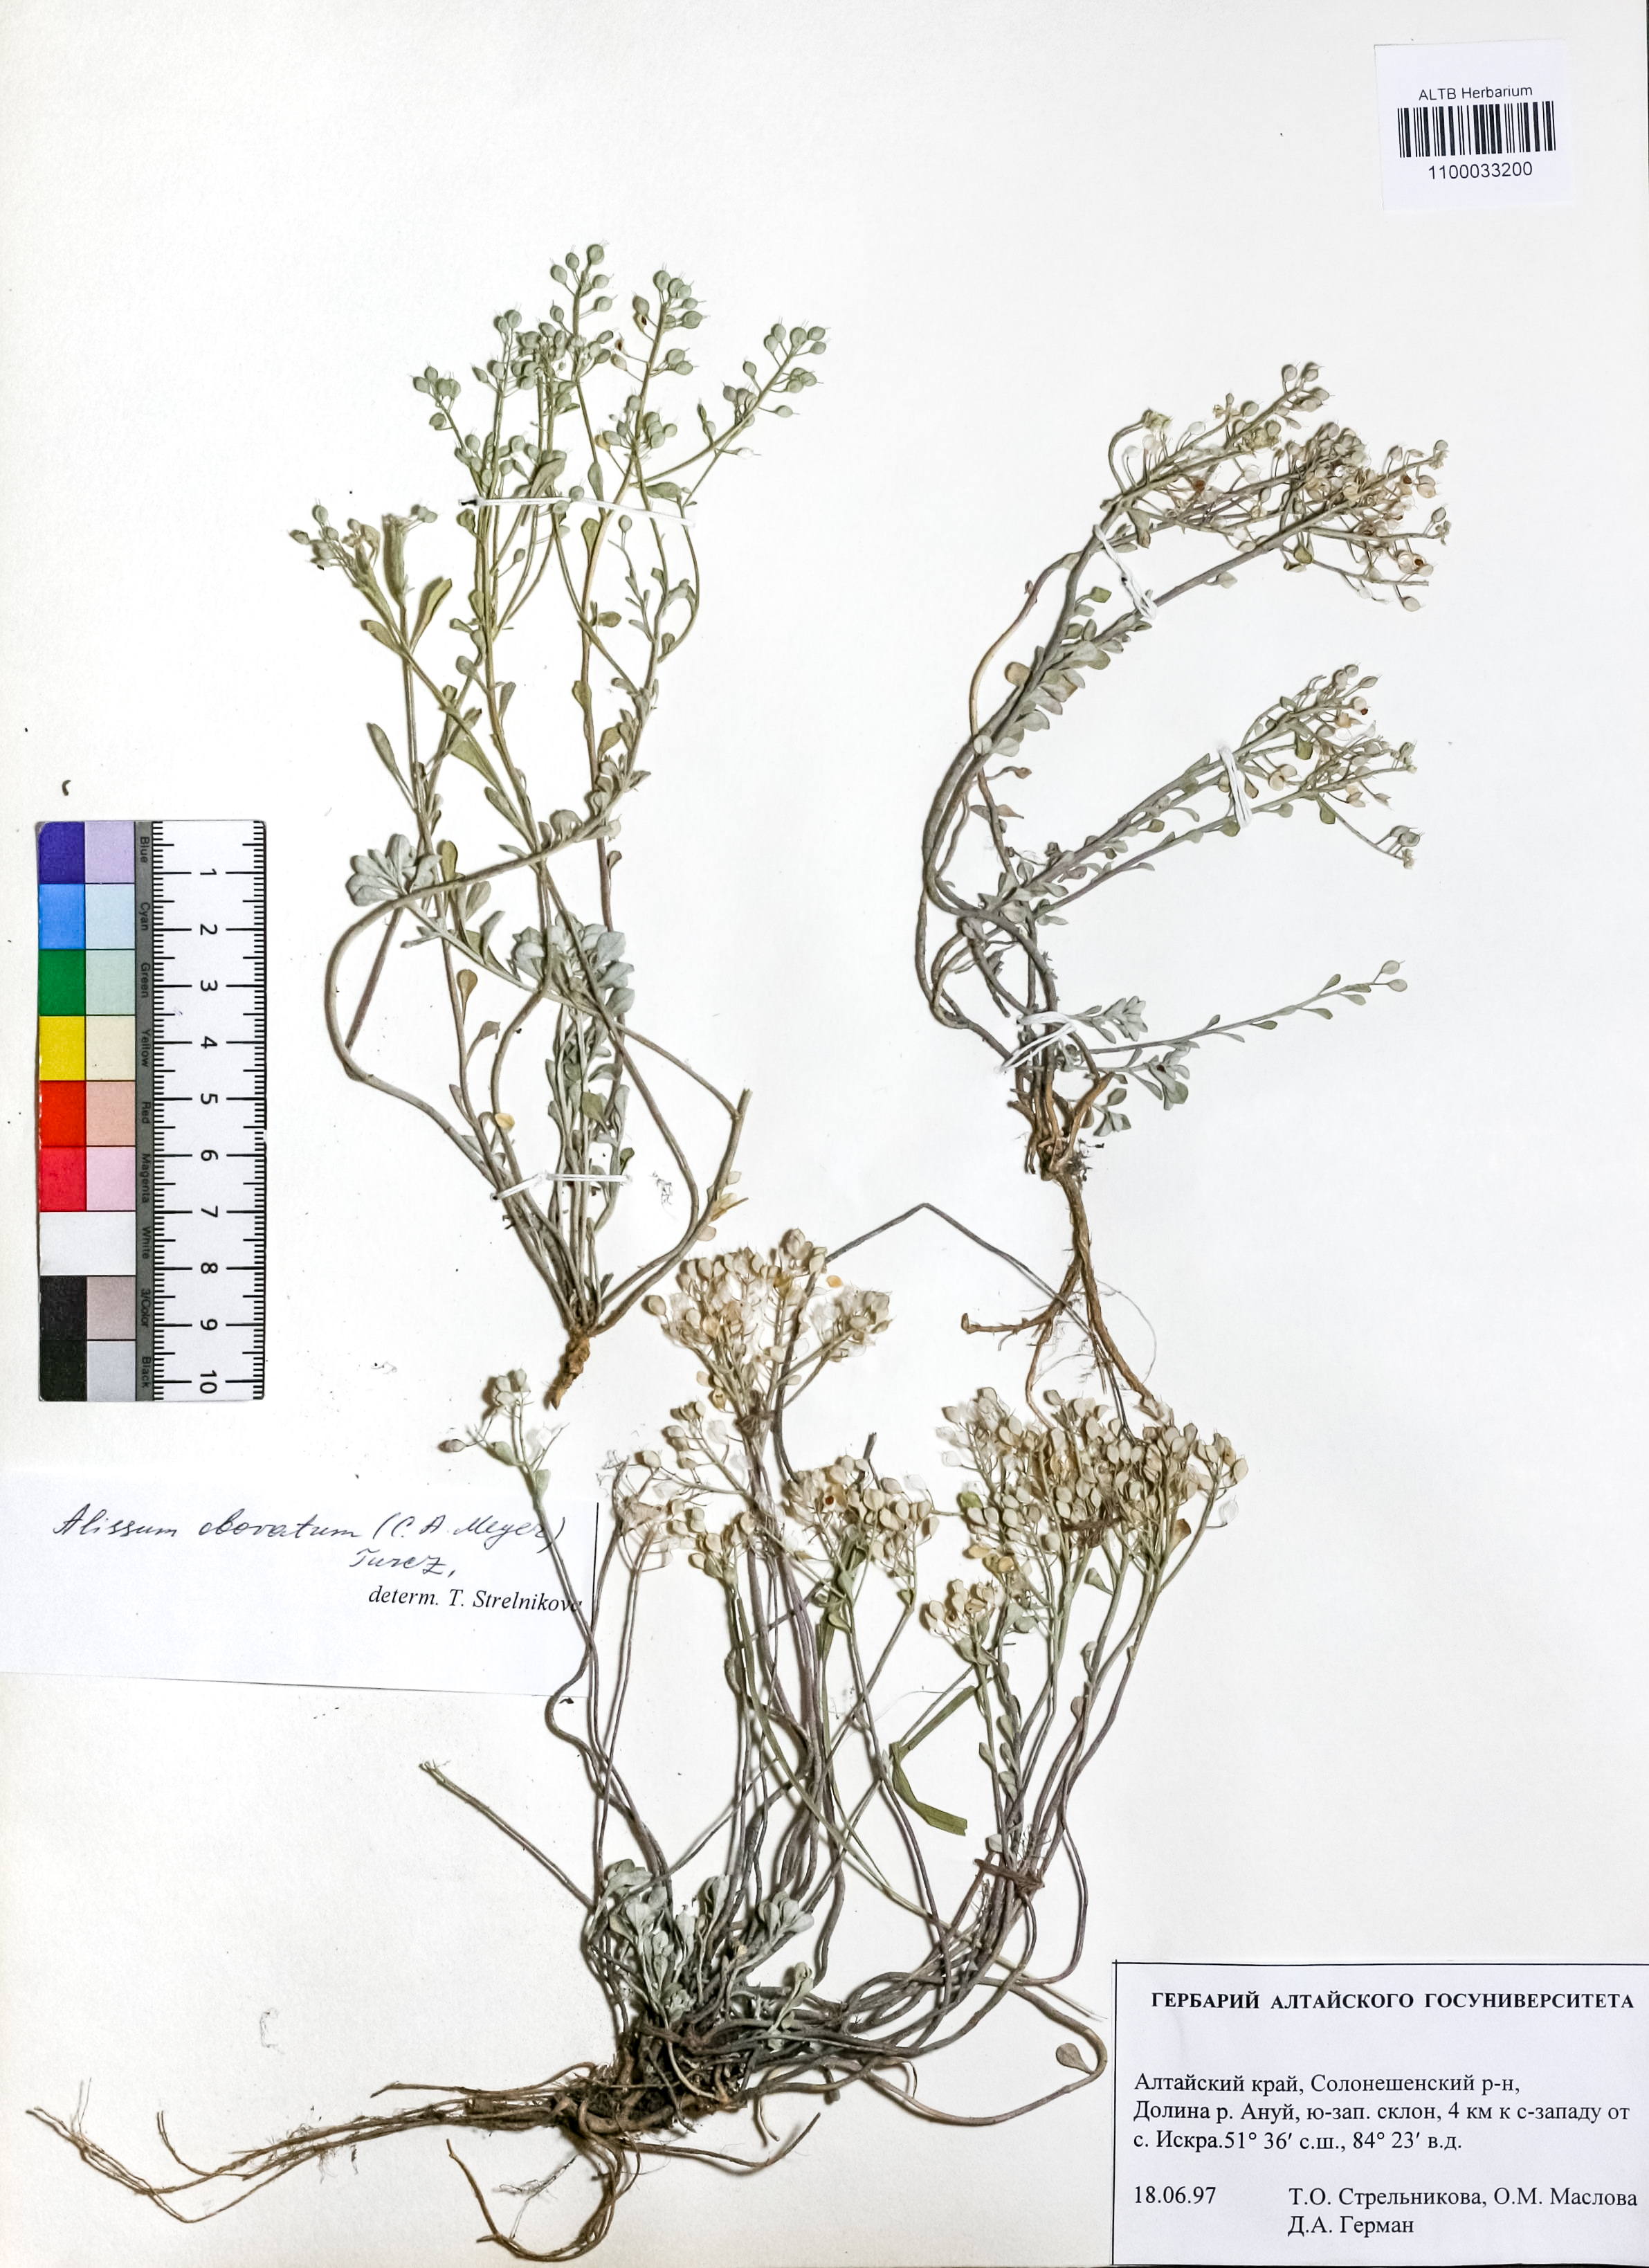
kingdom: Plantae
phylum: Tracheophyta
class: Magnoliopsida
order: Brassicales
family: Brassicaceae
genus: Odontarrhena
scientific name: Odontarrhena obovata
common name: American alyssum
